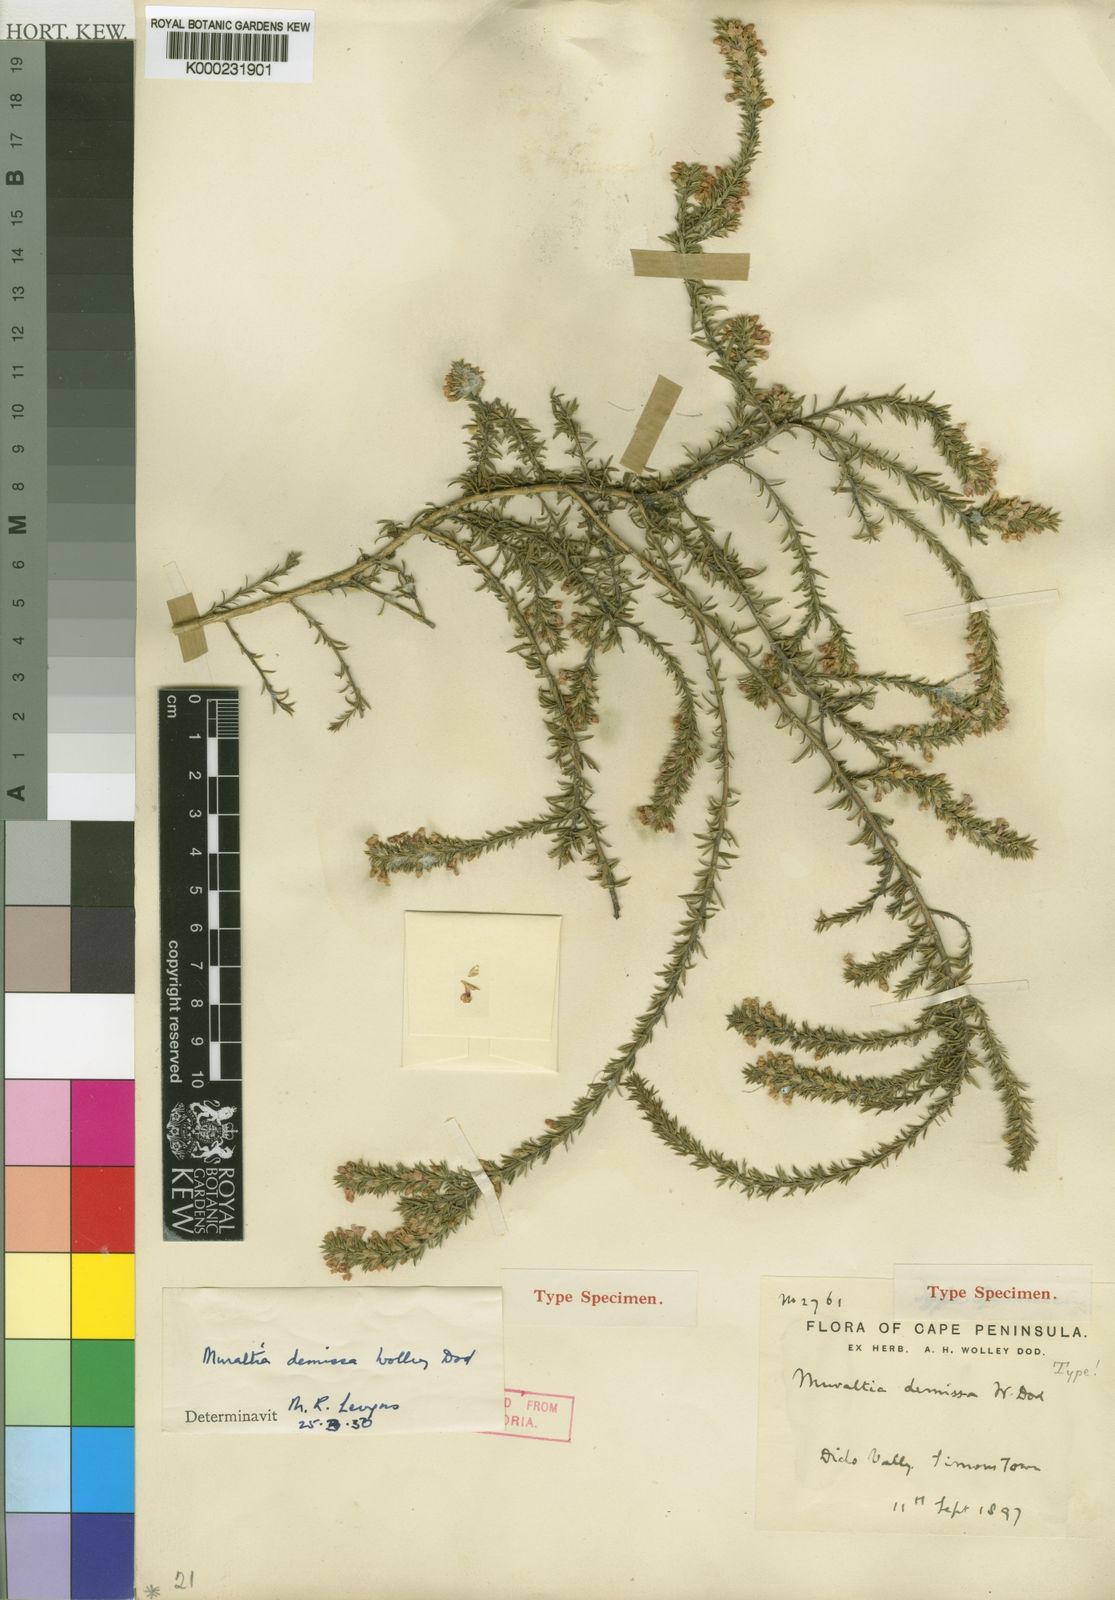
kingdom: Plantae
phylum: Tracheophyta
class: Magnoliopsida
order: Fabales
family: Polygalaceae
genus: Muraltia
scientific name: Muraltia demissa
